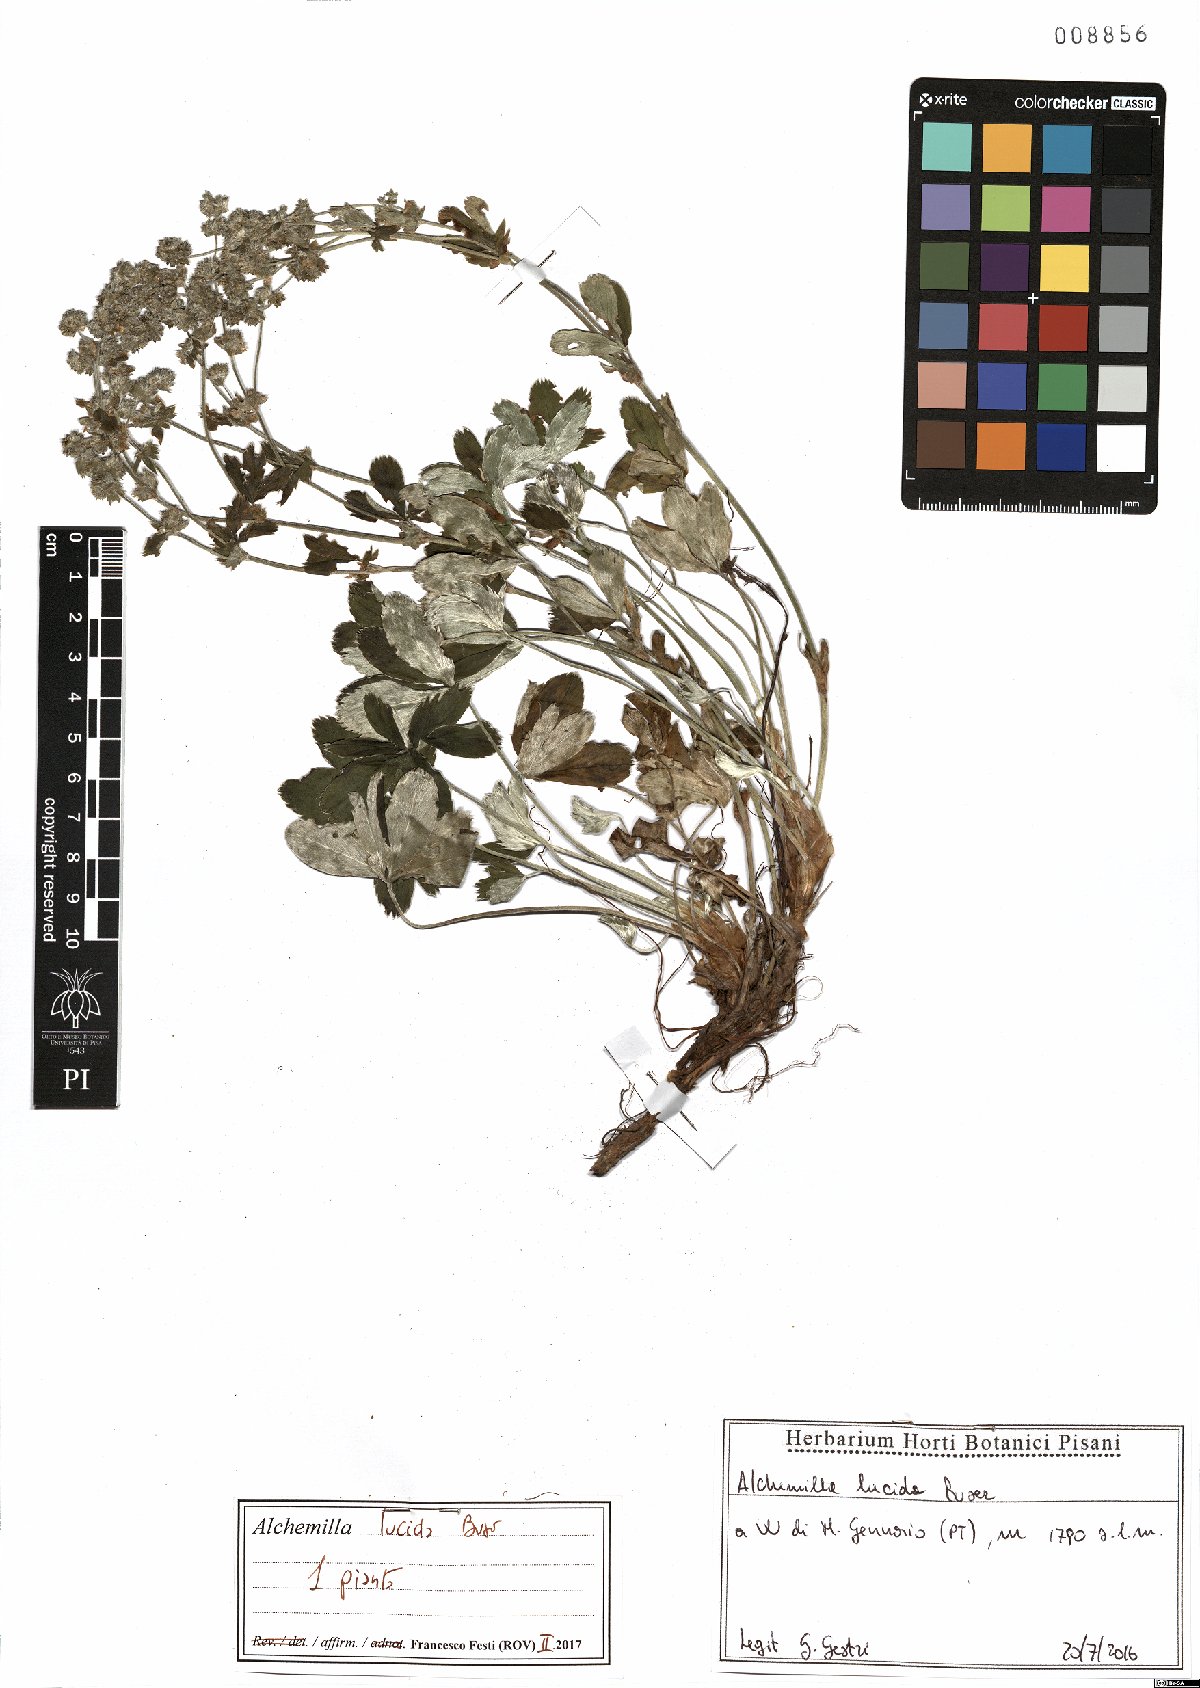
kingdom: Plantae
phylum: Tracheophyta
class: Magnoliopsida
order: Rosales
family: Rosaceae
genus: Alchemilla
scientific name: Alchemilla lucida
